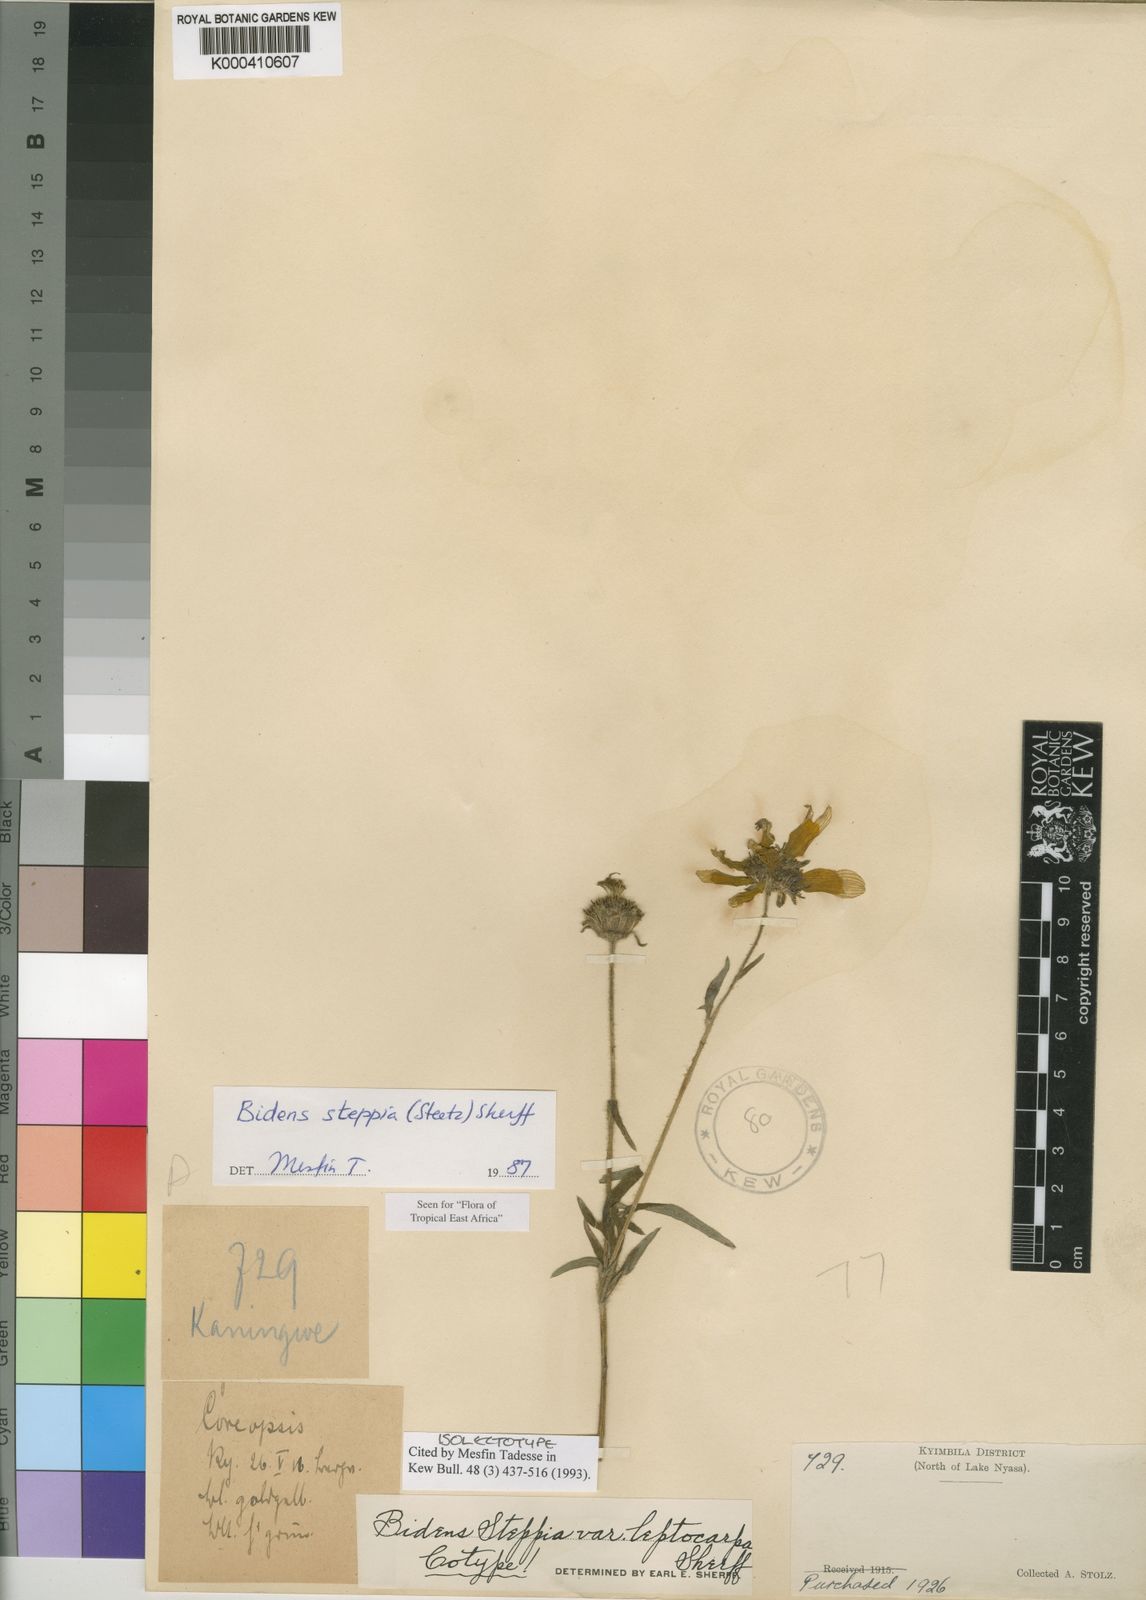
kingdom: Plantae
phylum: Tracheophyta
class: Magnoliopsida
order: Asterales
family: Asteraceae
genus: Bidens
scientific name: Bidens steppia
